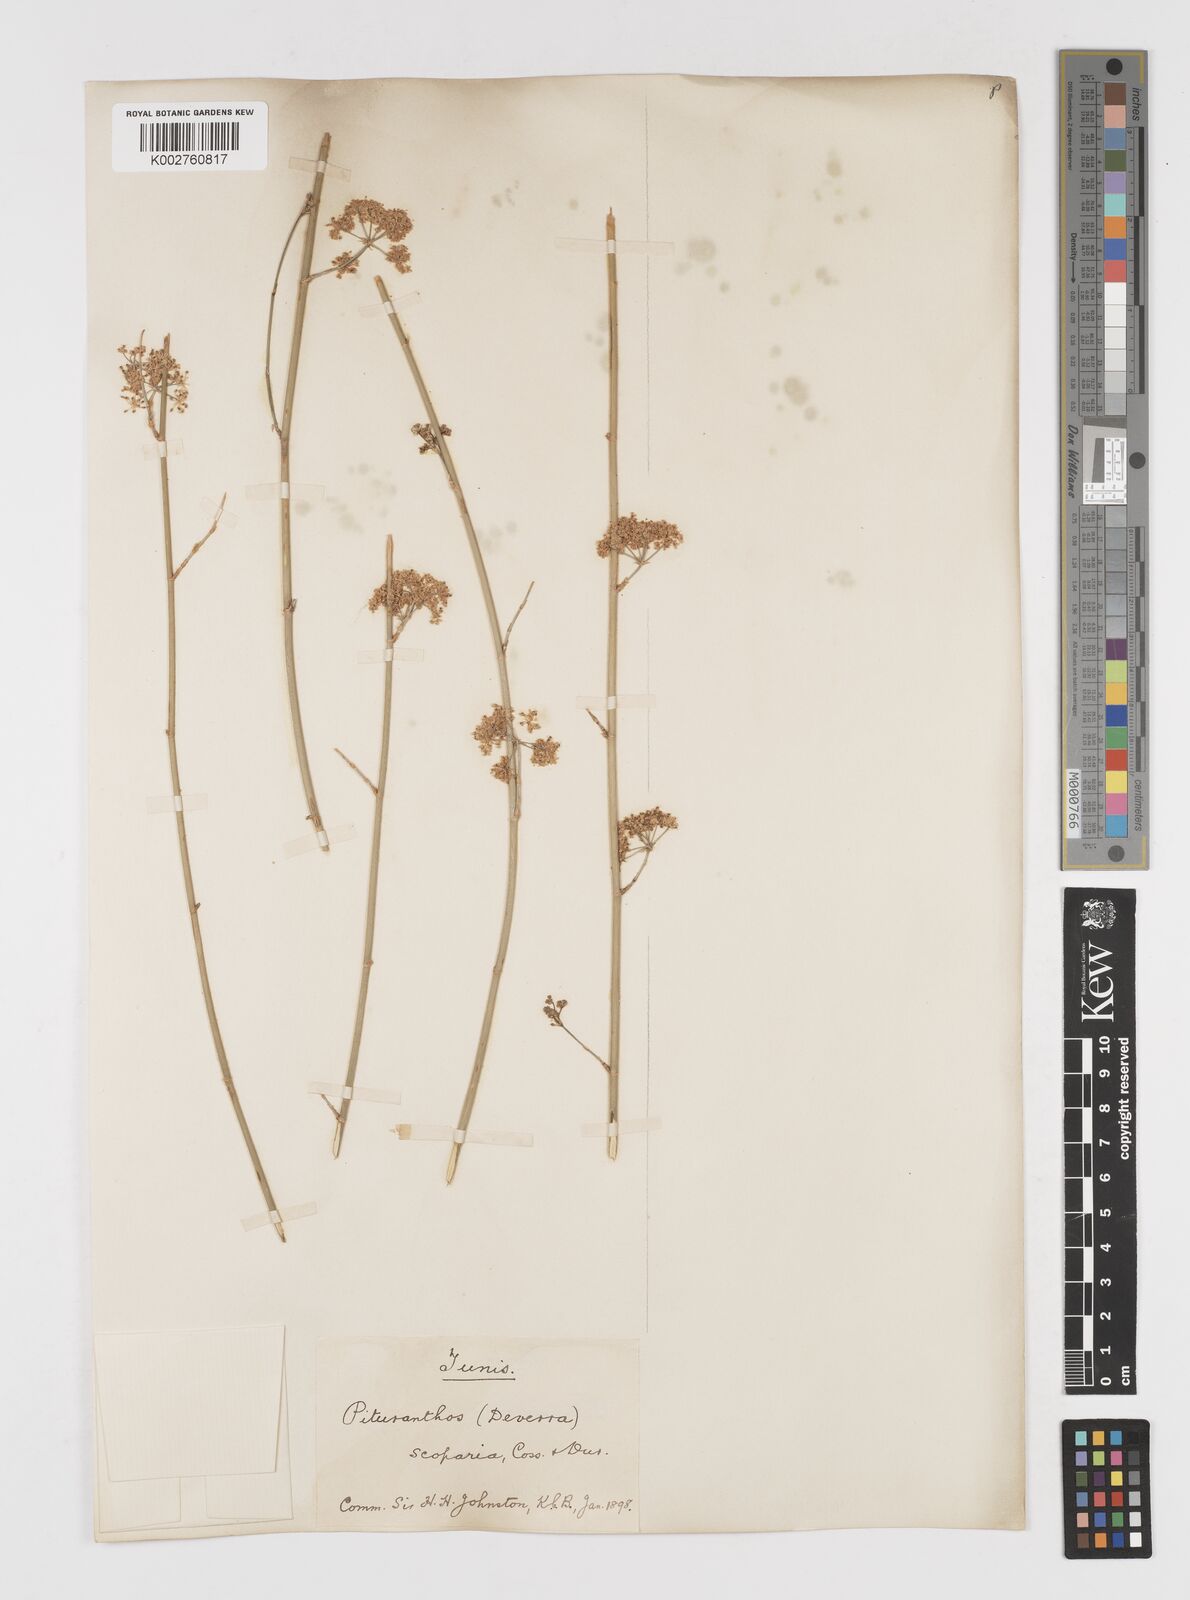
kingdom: Plantae
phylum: Tracheophyta
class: Magnoliopsida
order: Apiales
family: Apiaceae
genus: Deverra
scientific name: Deverra scoparia
